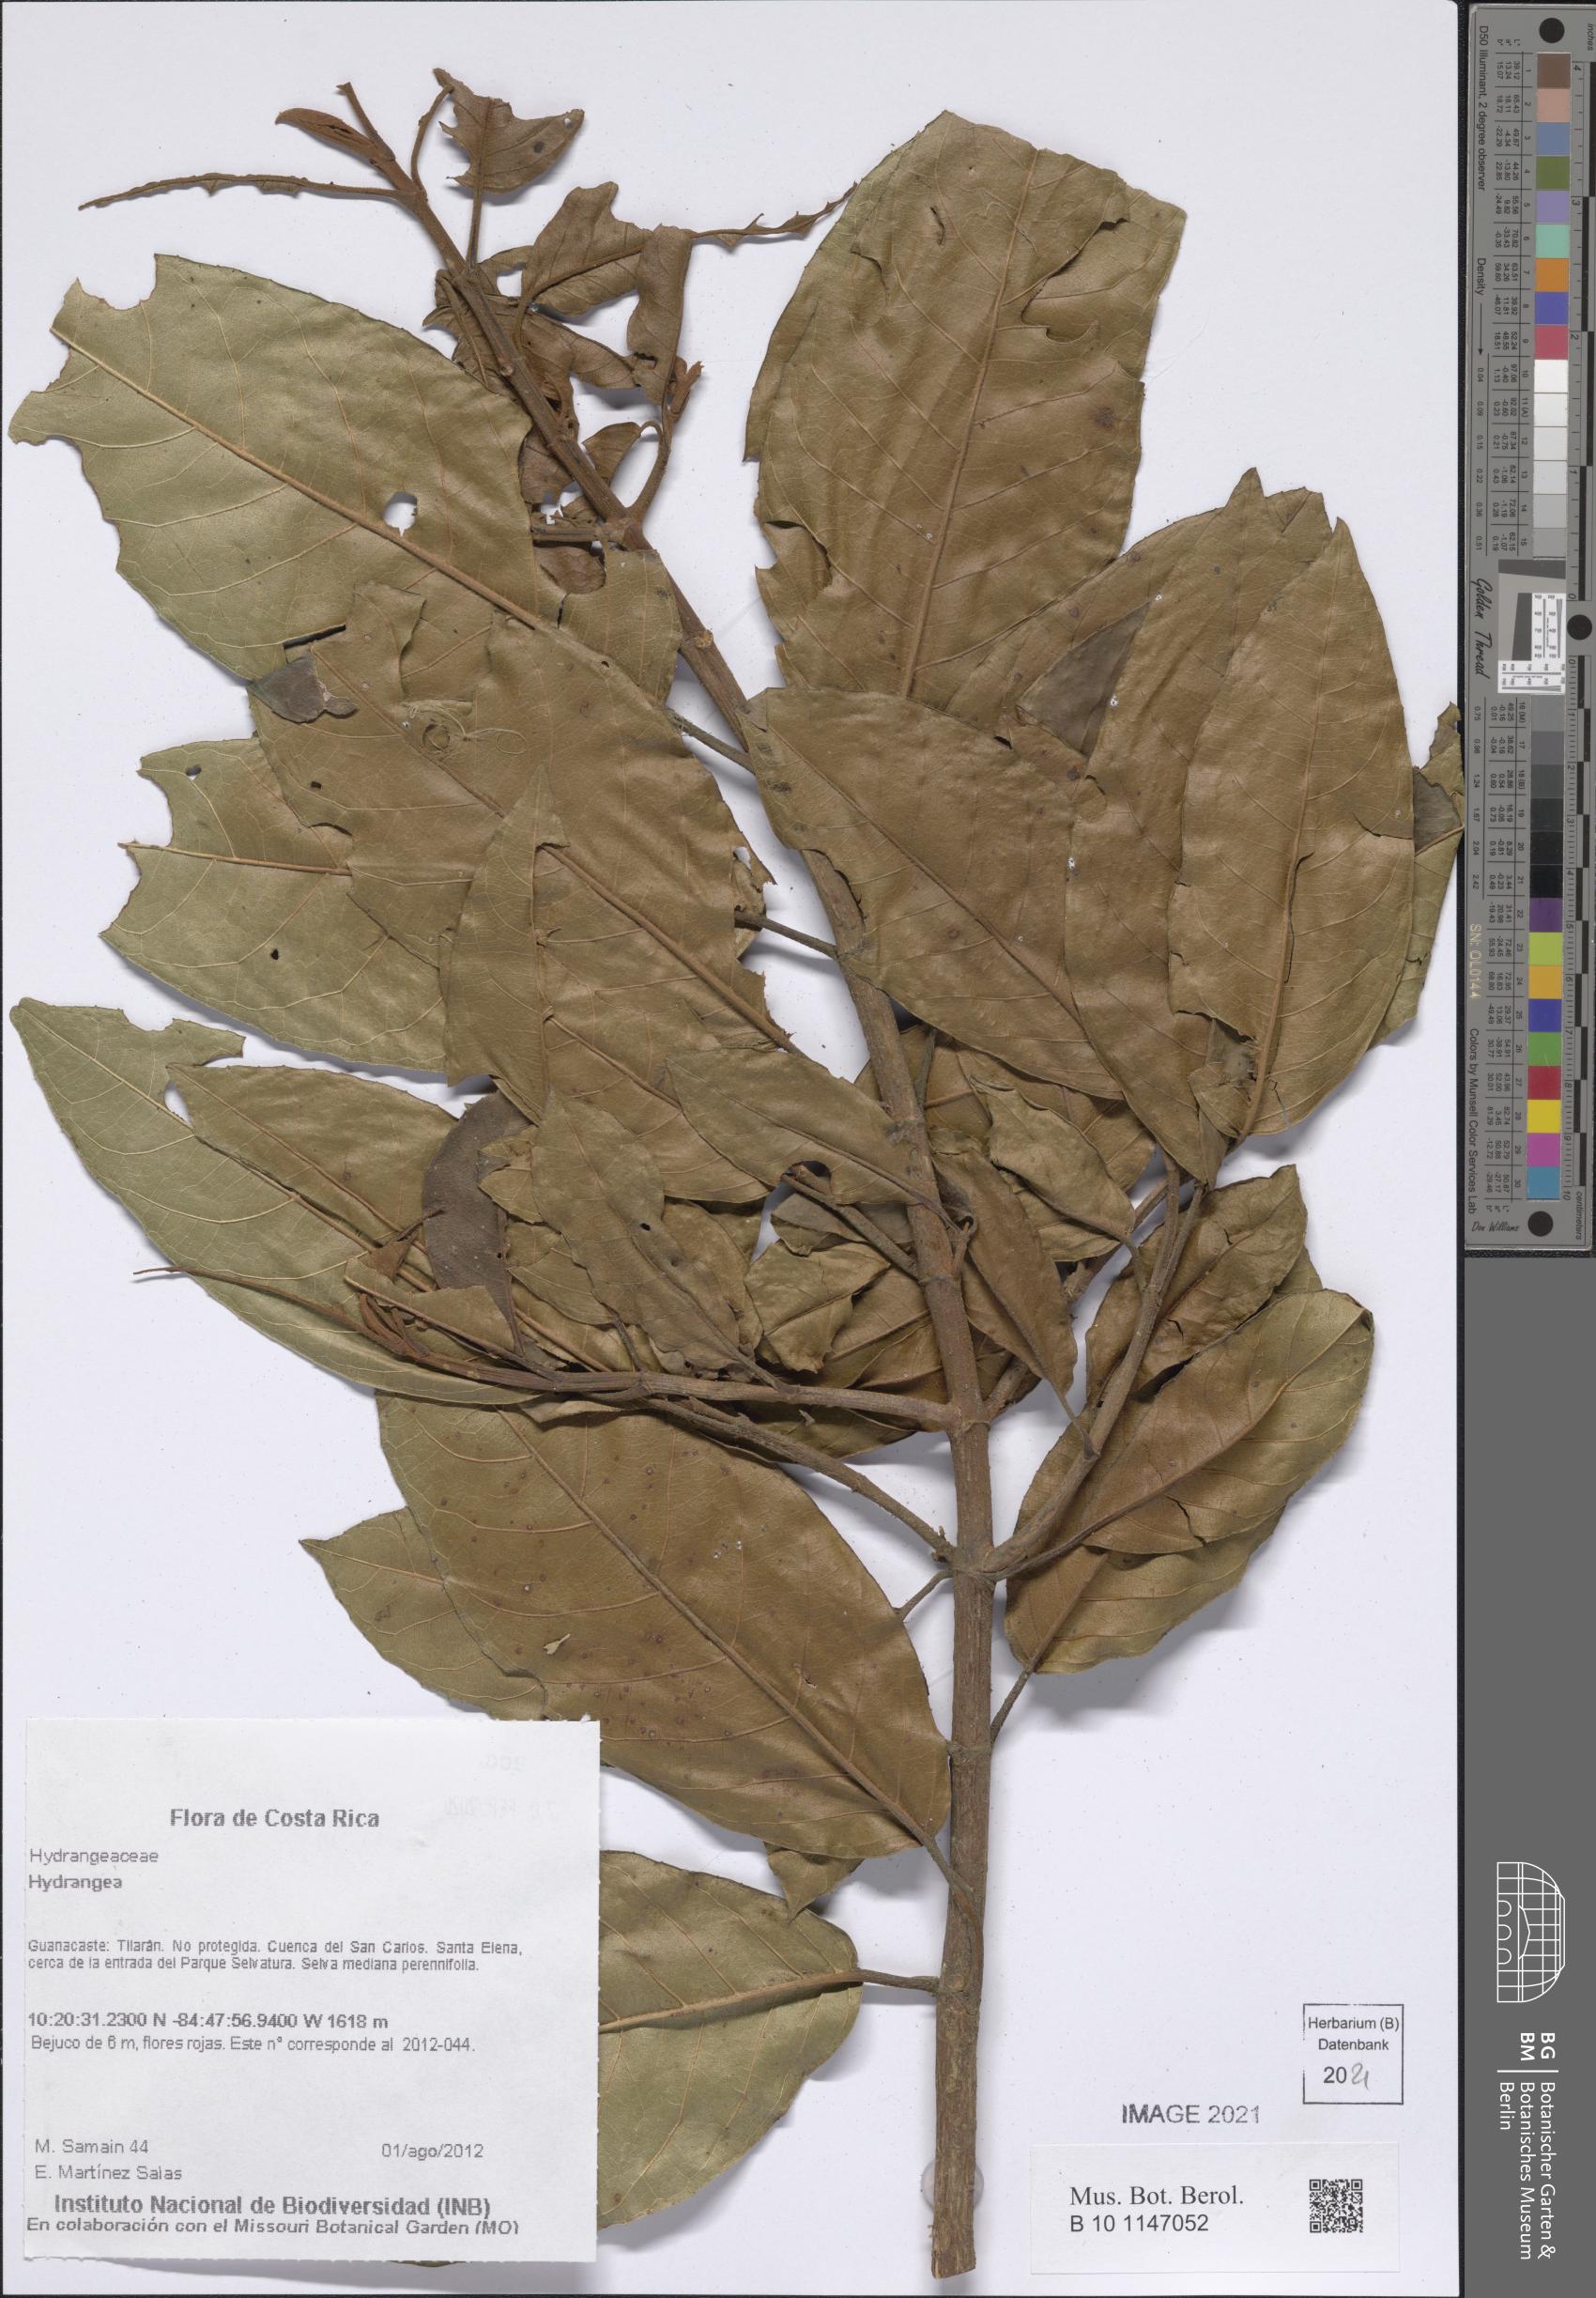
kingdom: Plantae
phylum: Tracheophyta
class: Magnoliopsida
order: Cornales
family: Hydrangeaceae
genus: Hydrangea
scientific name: Hydrangea
